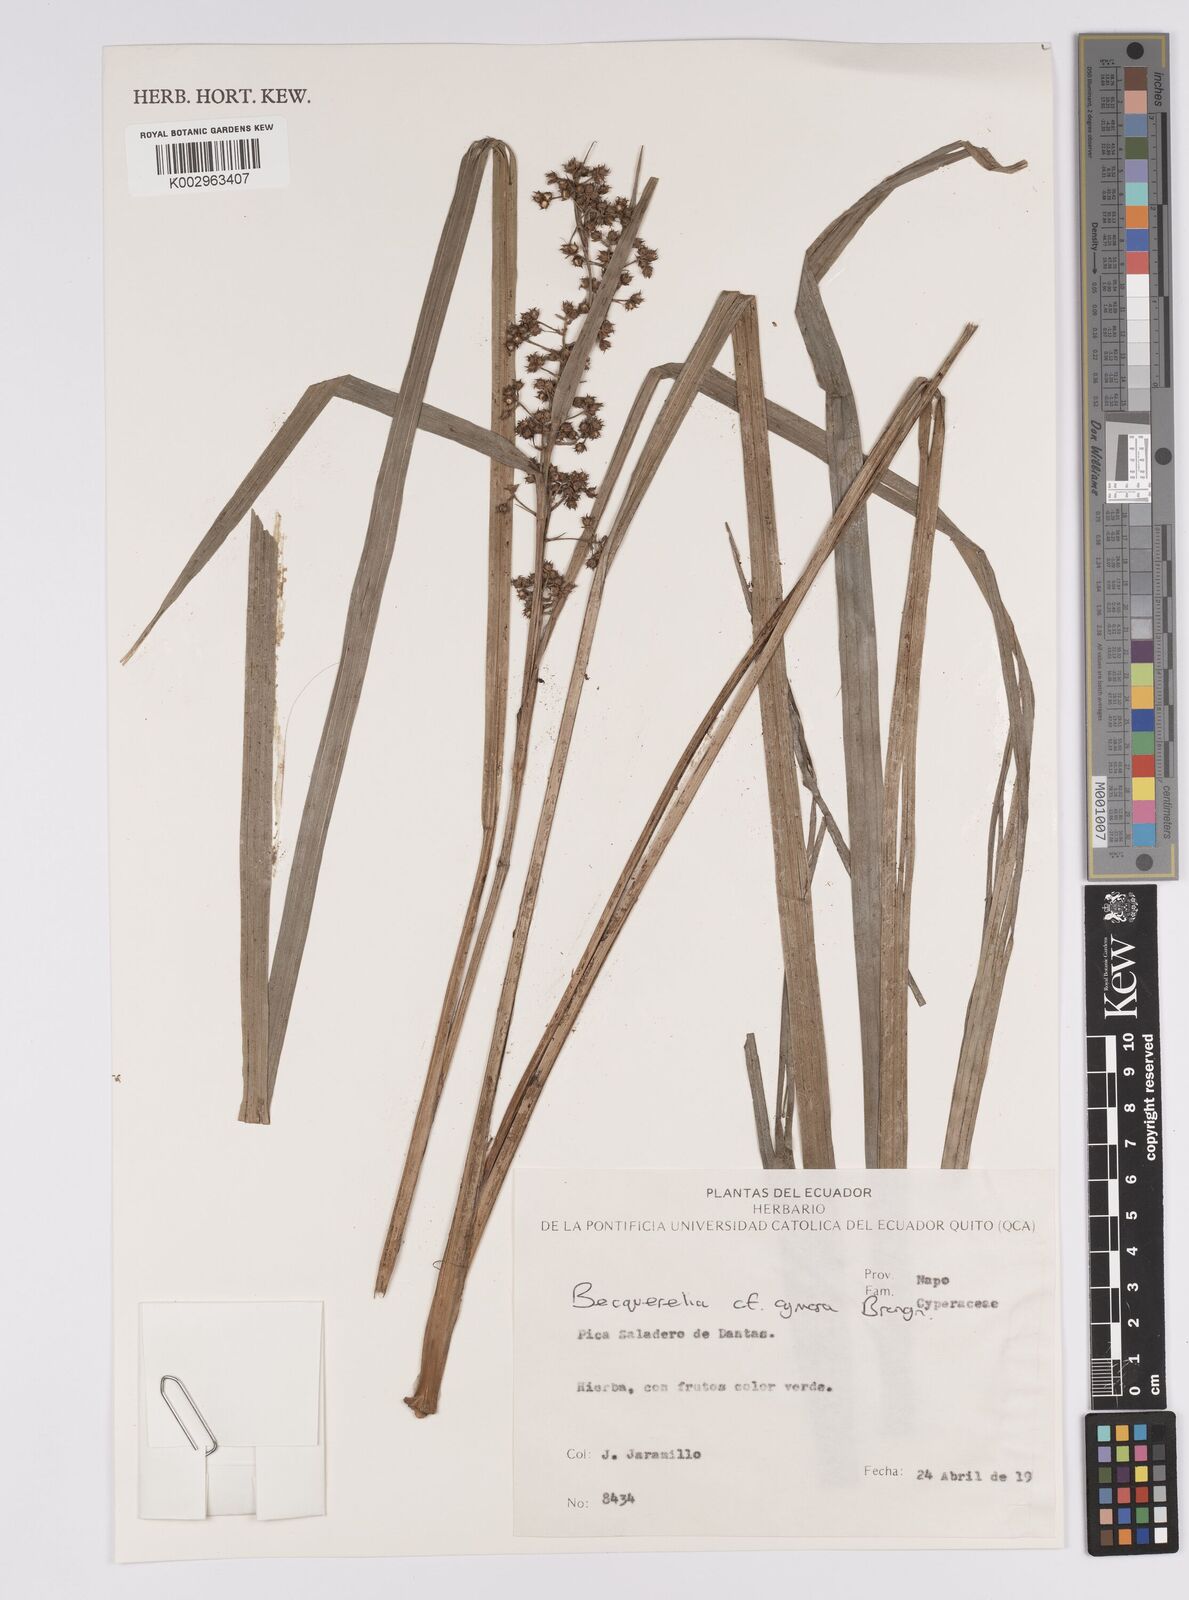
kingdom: Plantae
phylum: Tracheophyta
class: Liliopsida
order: Poales
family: Cyperaceae
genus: Becquerelia
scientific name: Becquerelia cymosa
